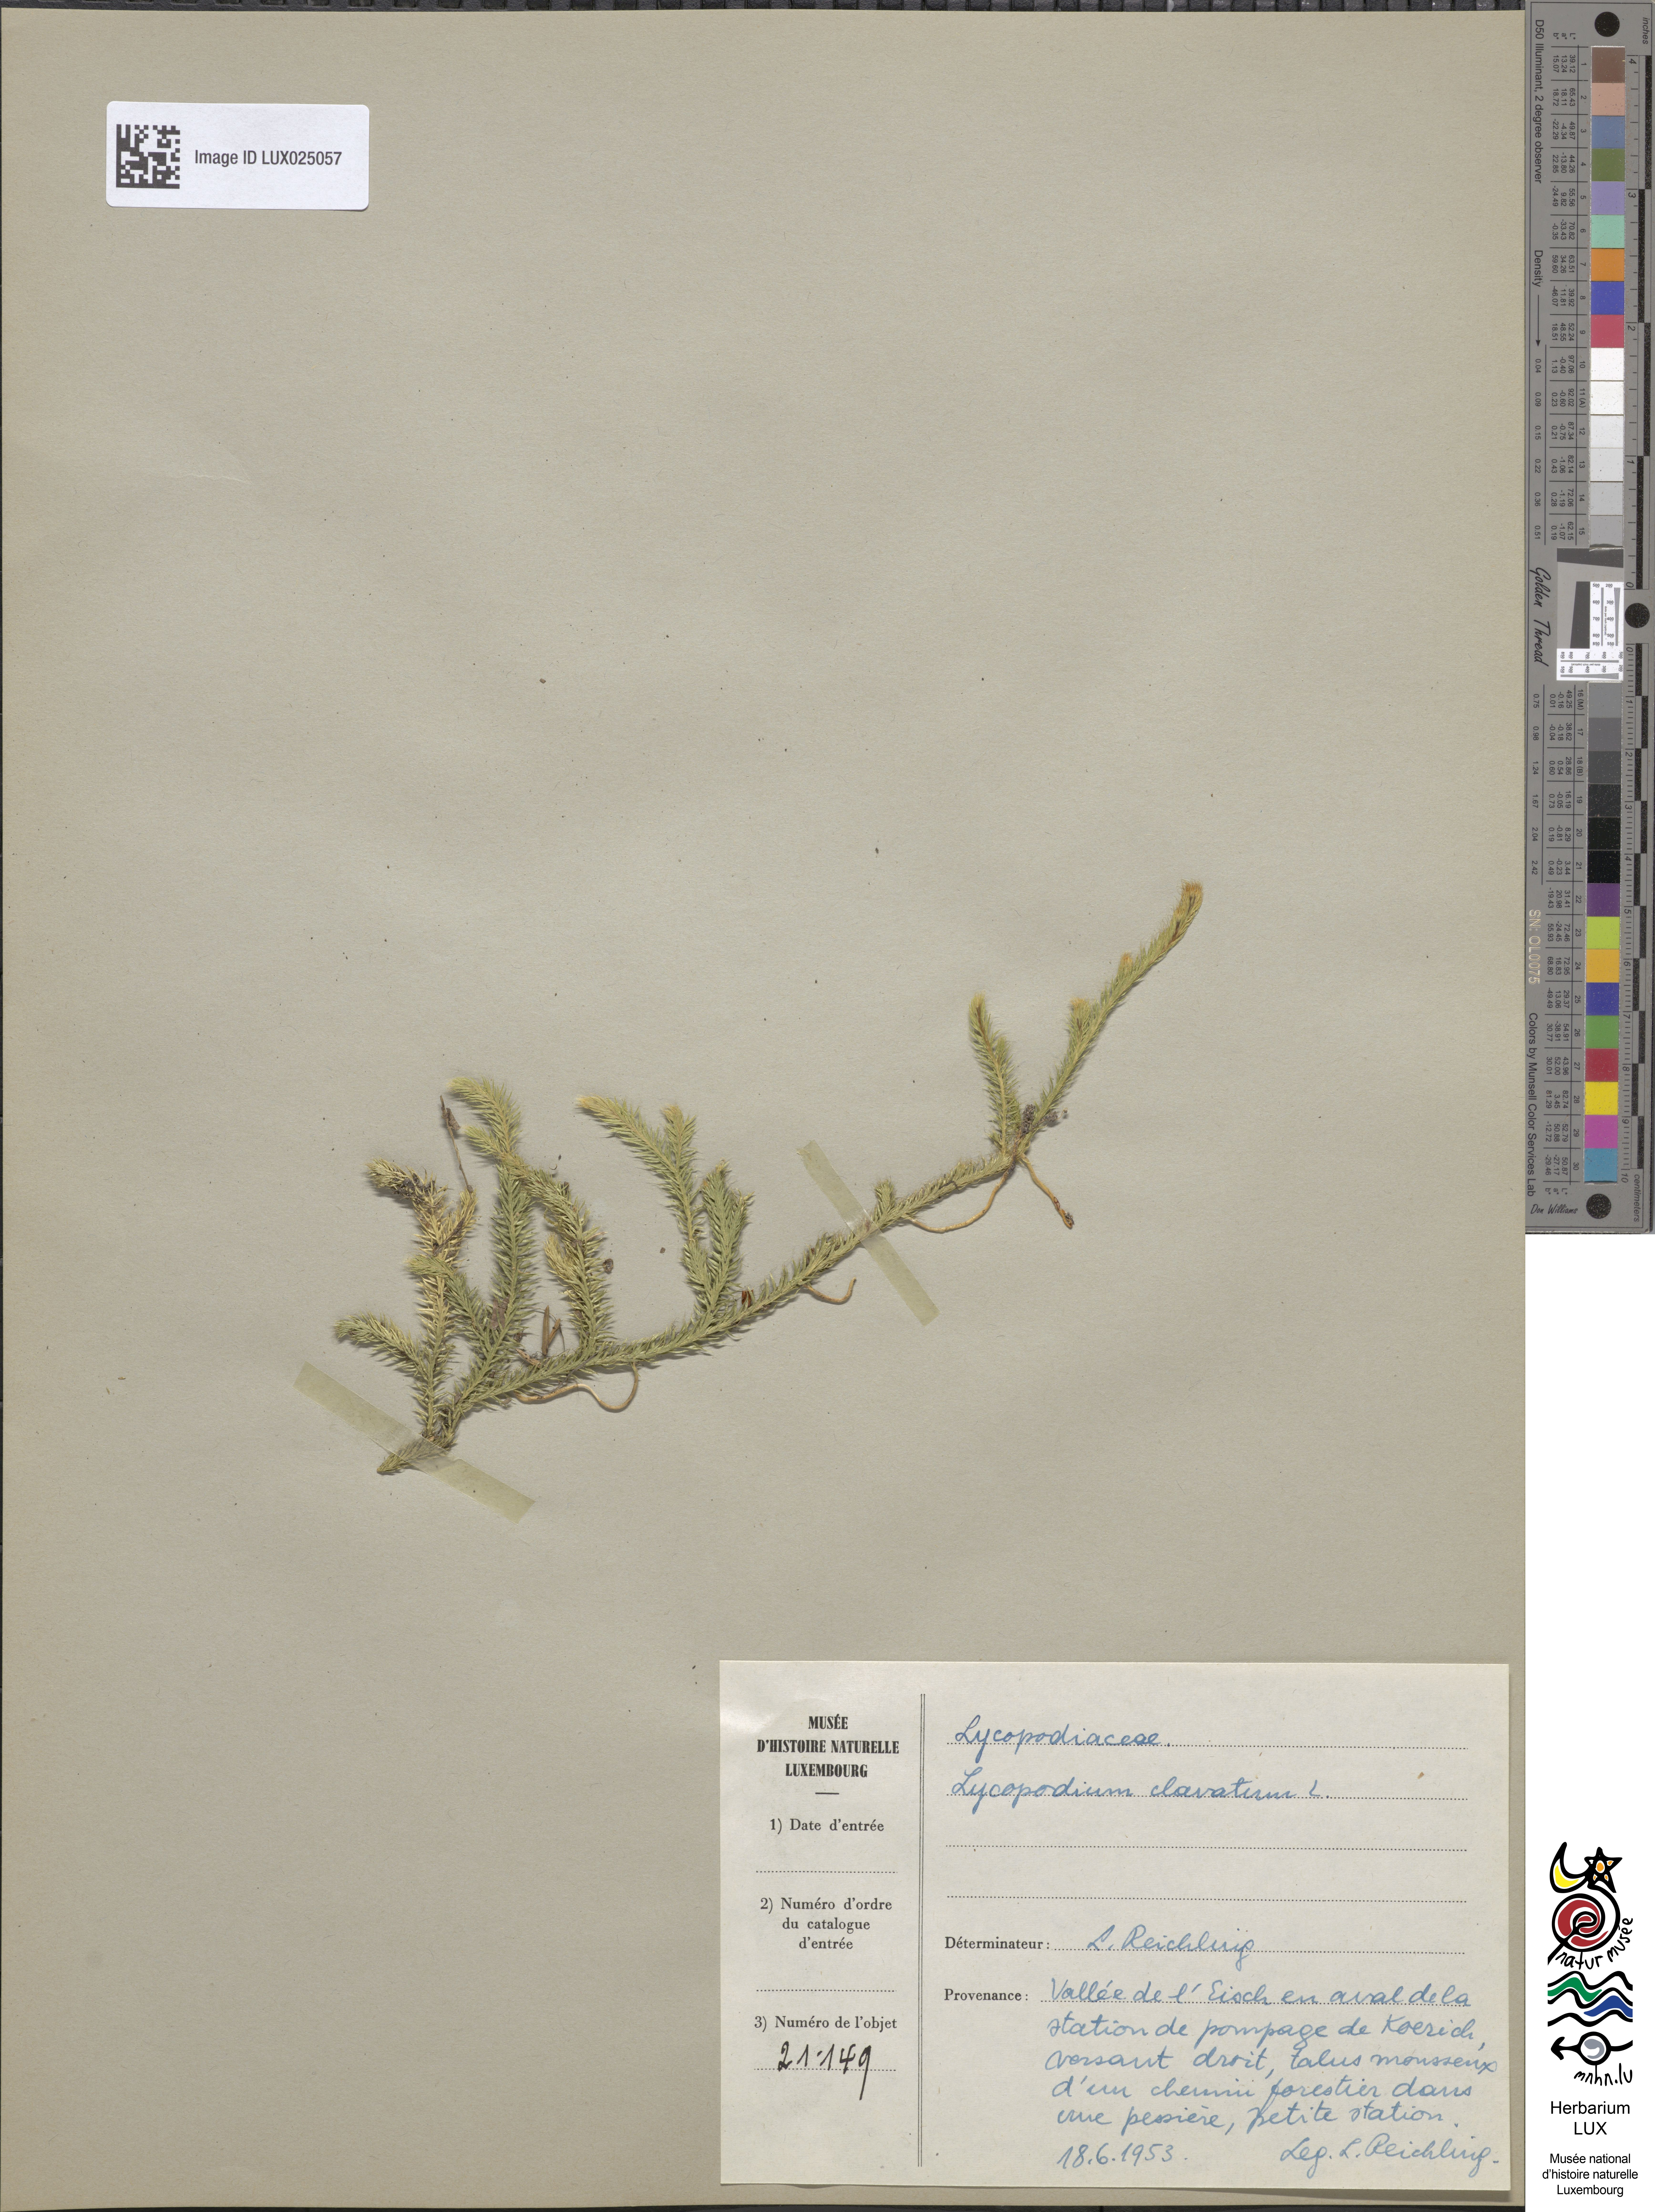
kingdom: Plantae
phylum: Tracheophyta
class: Lycopodiopsida
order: Lycopodiales
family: Lycopodiaceae
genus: Lycopodium
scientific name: Lycopodium clavatum
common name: Stag's-horn clubmoss
